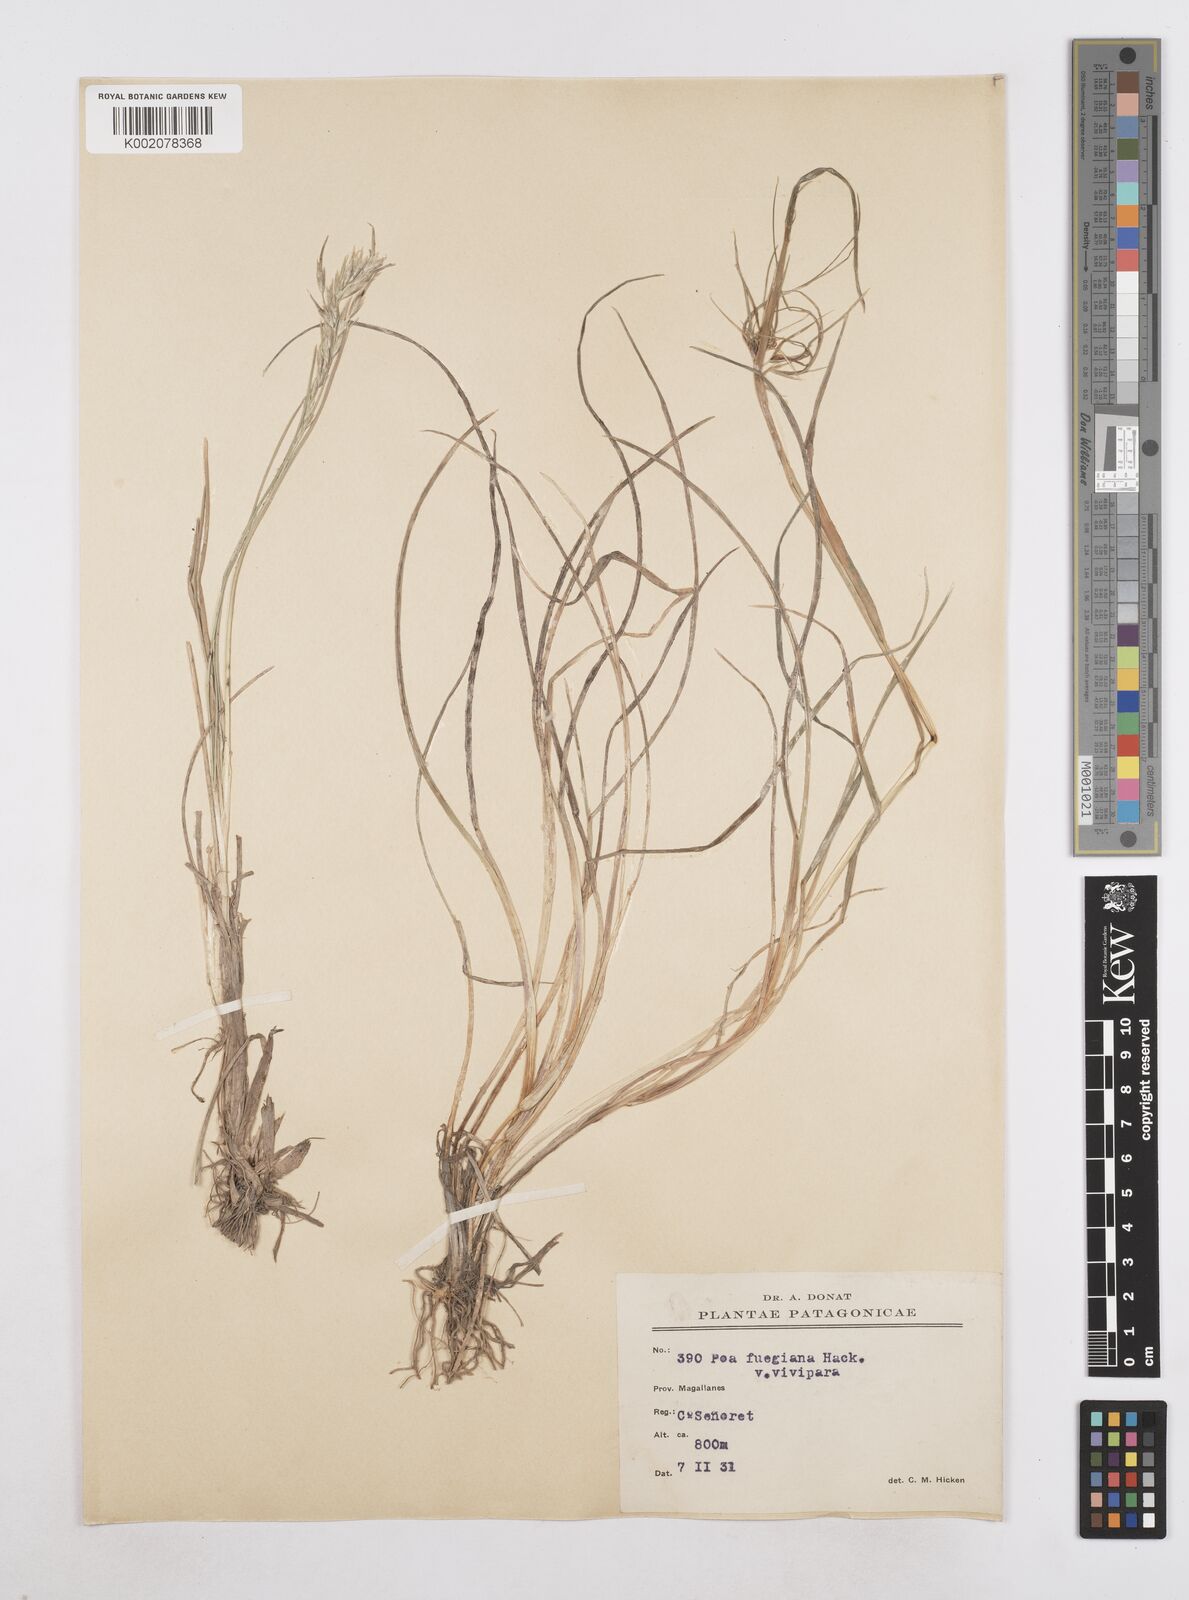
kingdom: Plantae
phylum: Tracheophyta
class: Liliopsida
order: Poales
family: Poaceae
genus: Poa
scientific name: Poa alopecurus
